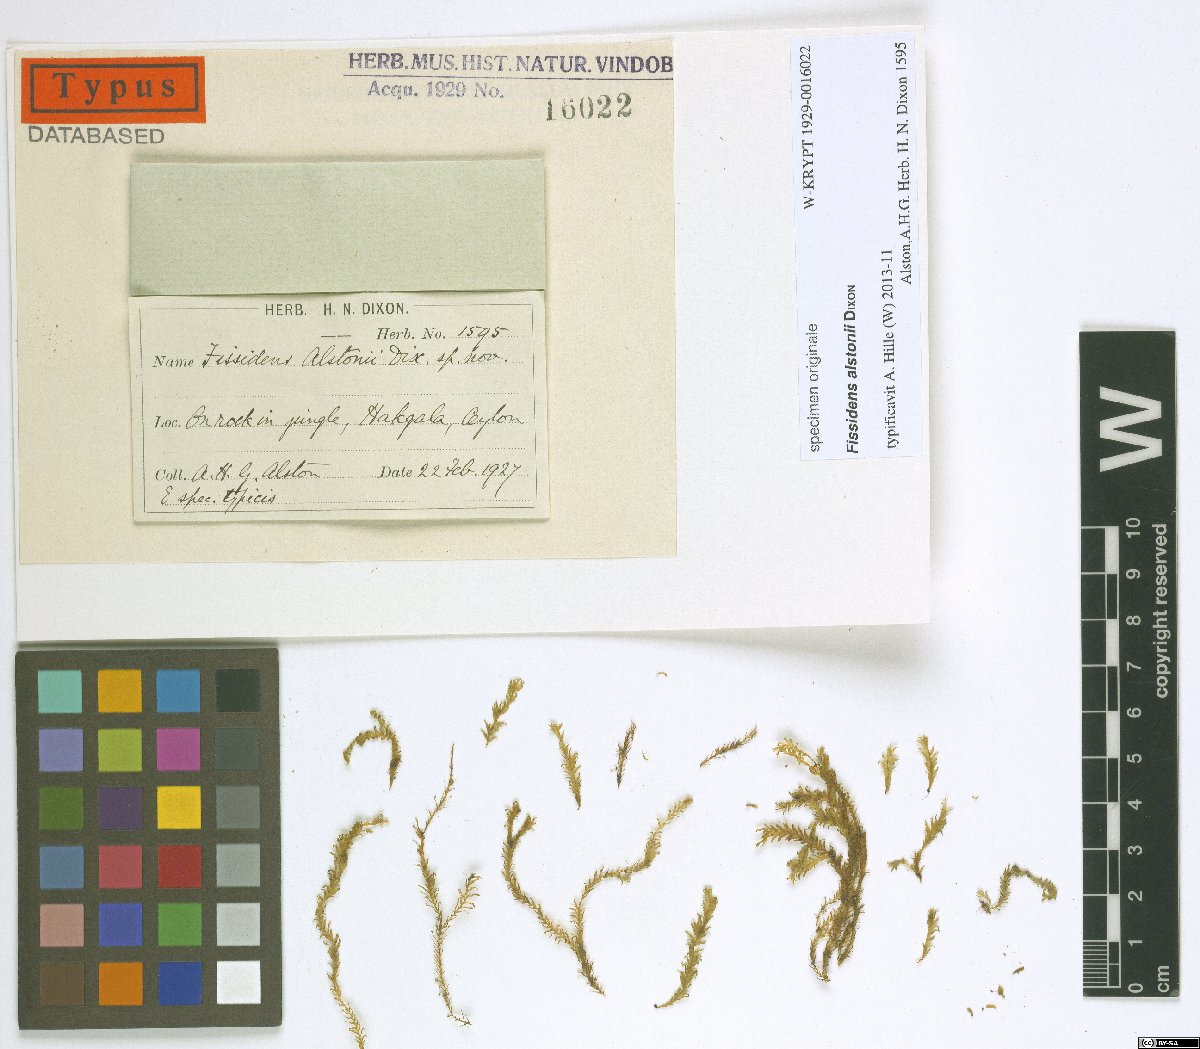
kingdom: Plantae
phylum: Bryophyta
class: Bryopsida
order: Dicranales
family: Fissidentaceae
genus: Fissidens
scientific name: Fissidens amoenus
